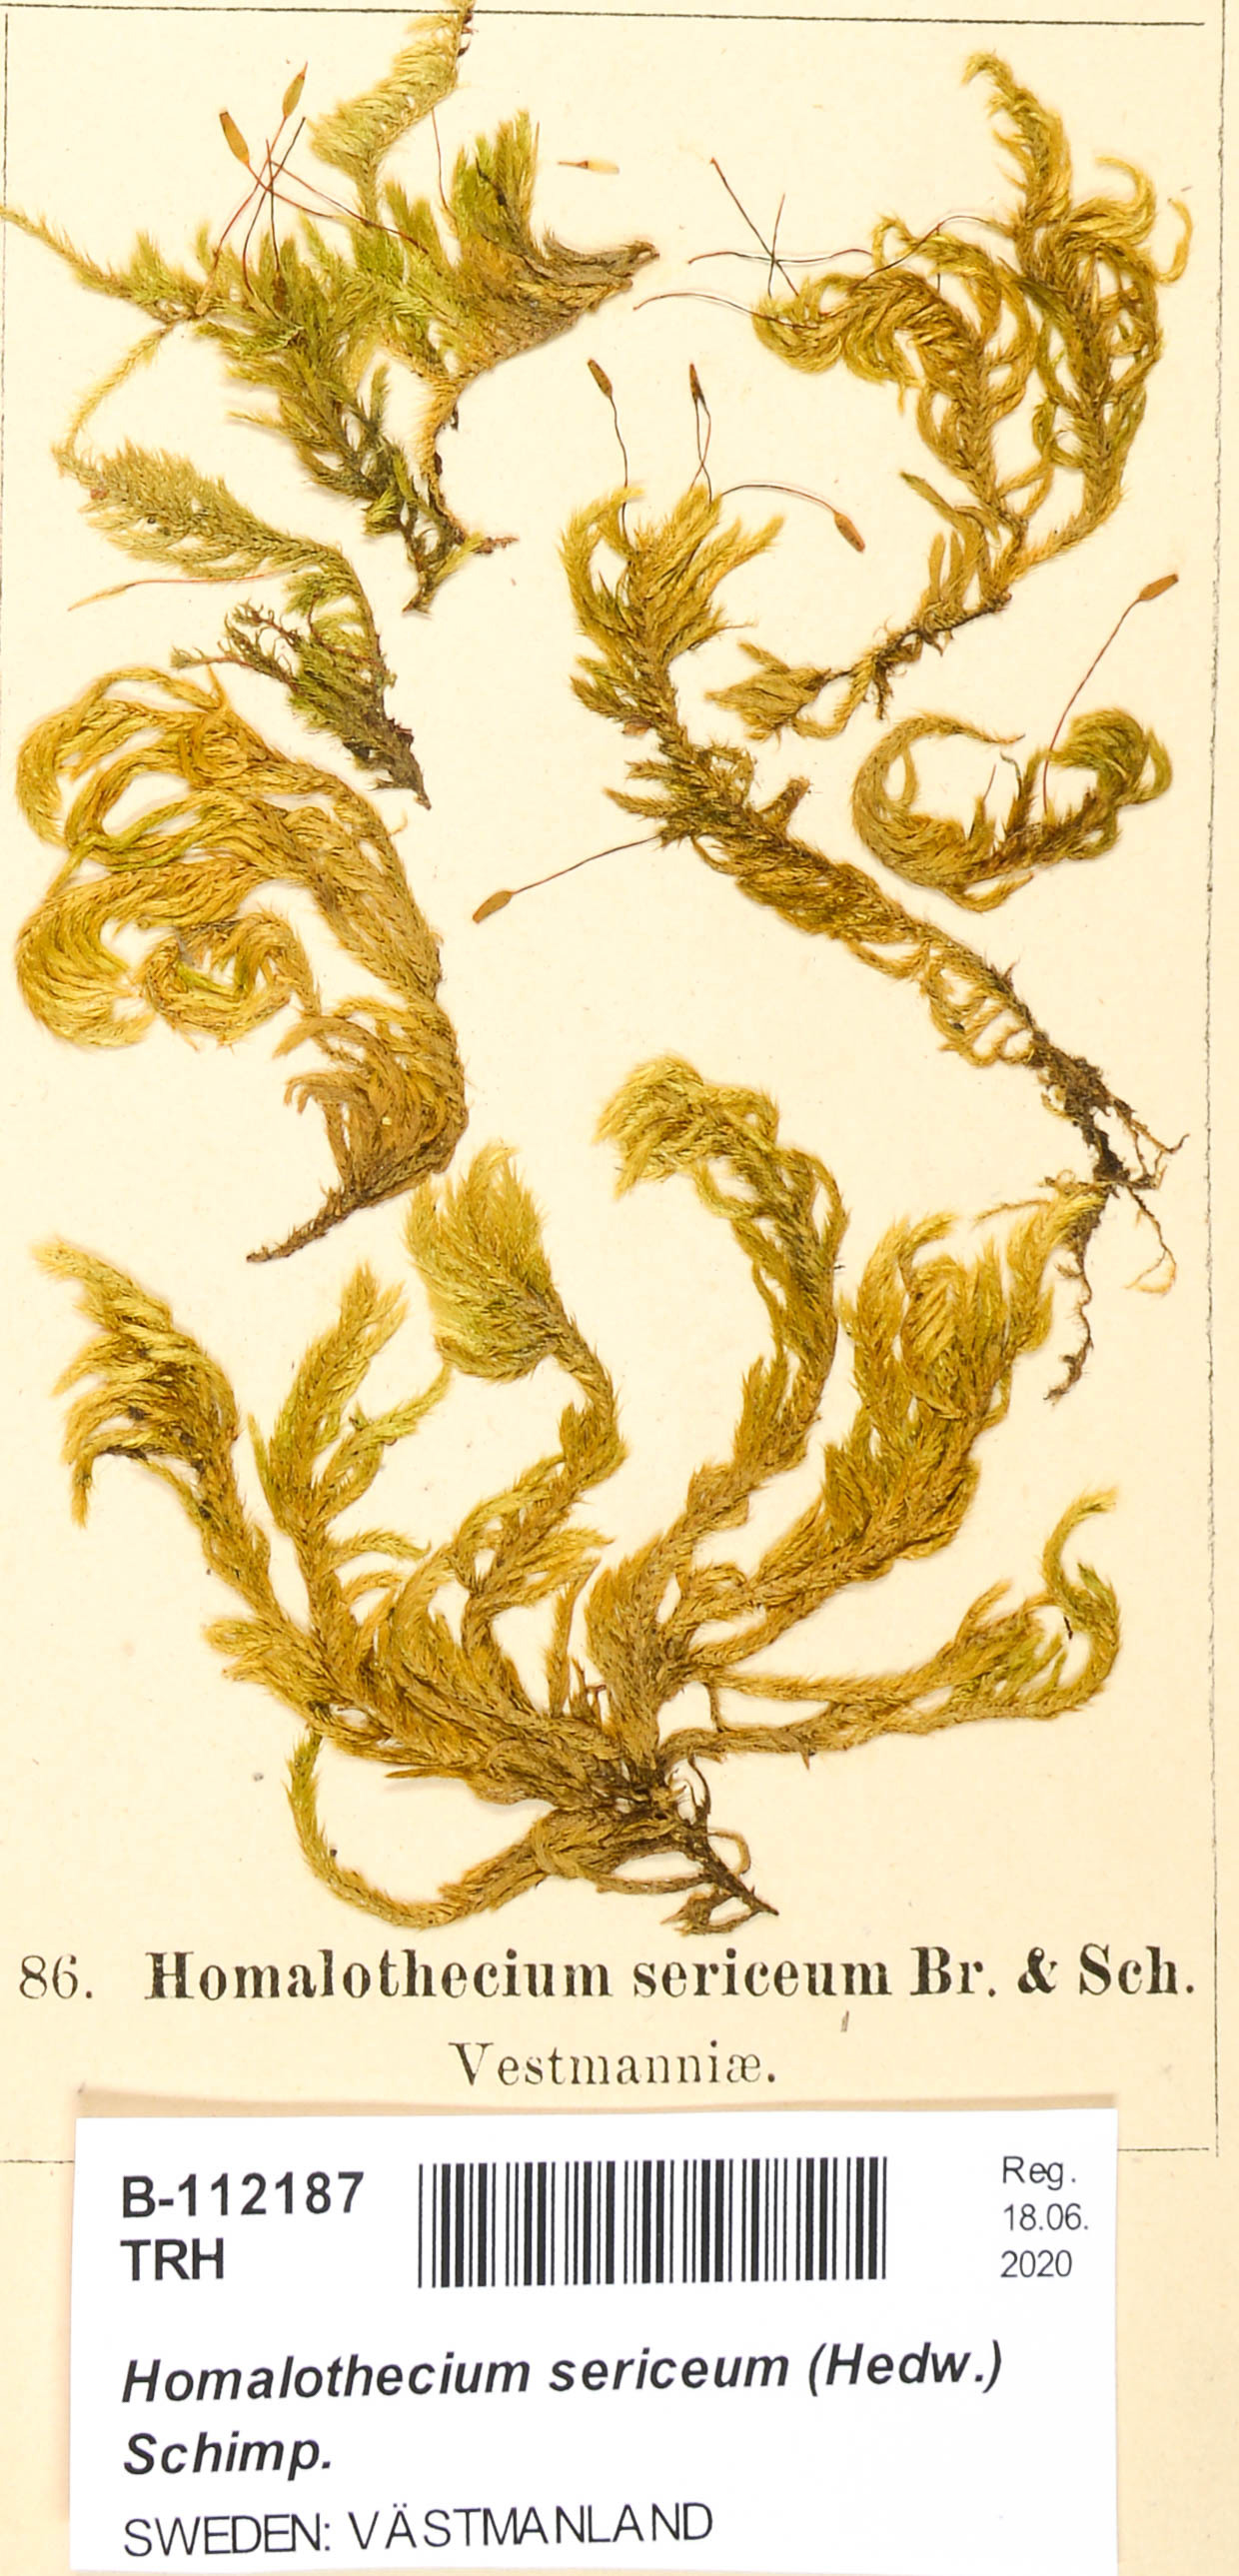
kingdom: Plantae
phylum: Bryophyta
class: Bryopsida
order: Hypnales
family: Brachytheciaceae
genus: Homalothecium
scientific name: Homalothecium sericeum
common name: Silky wall feather-moss
